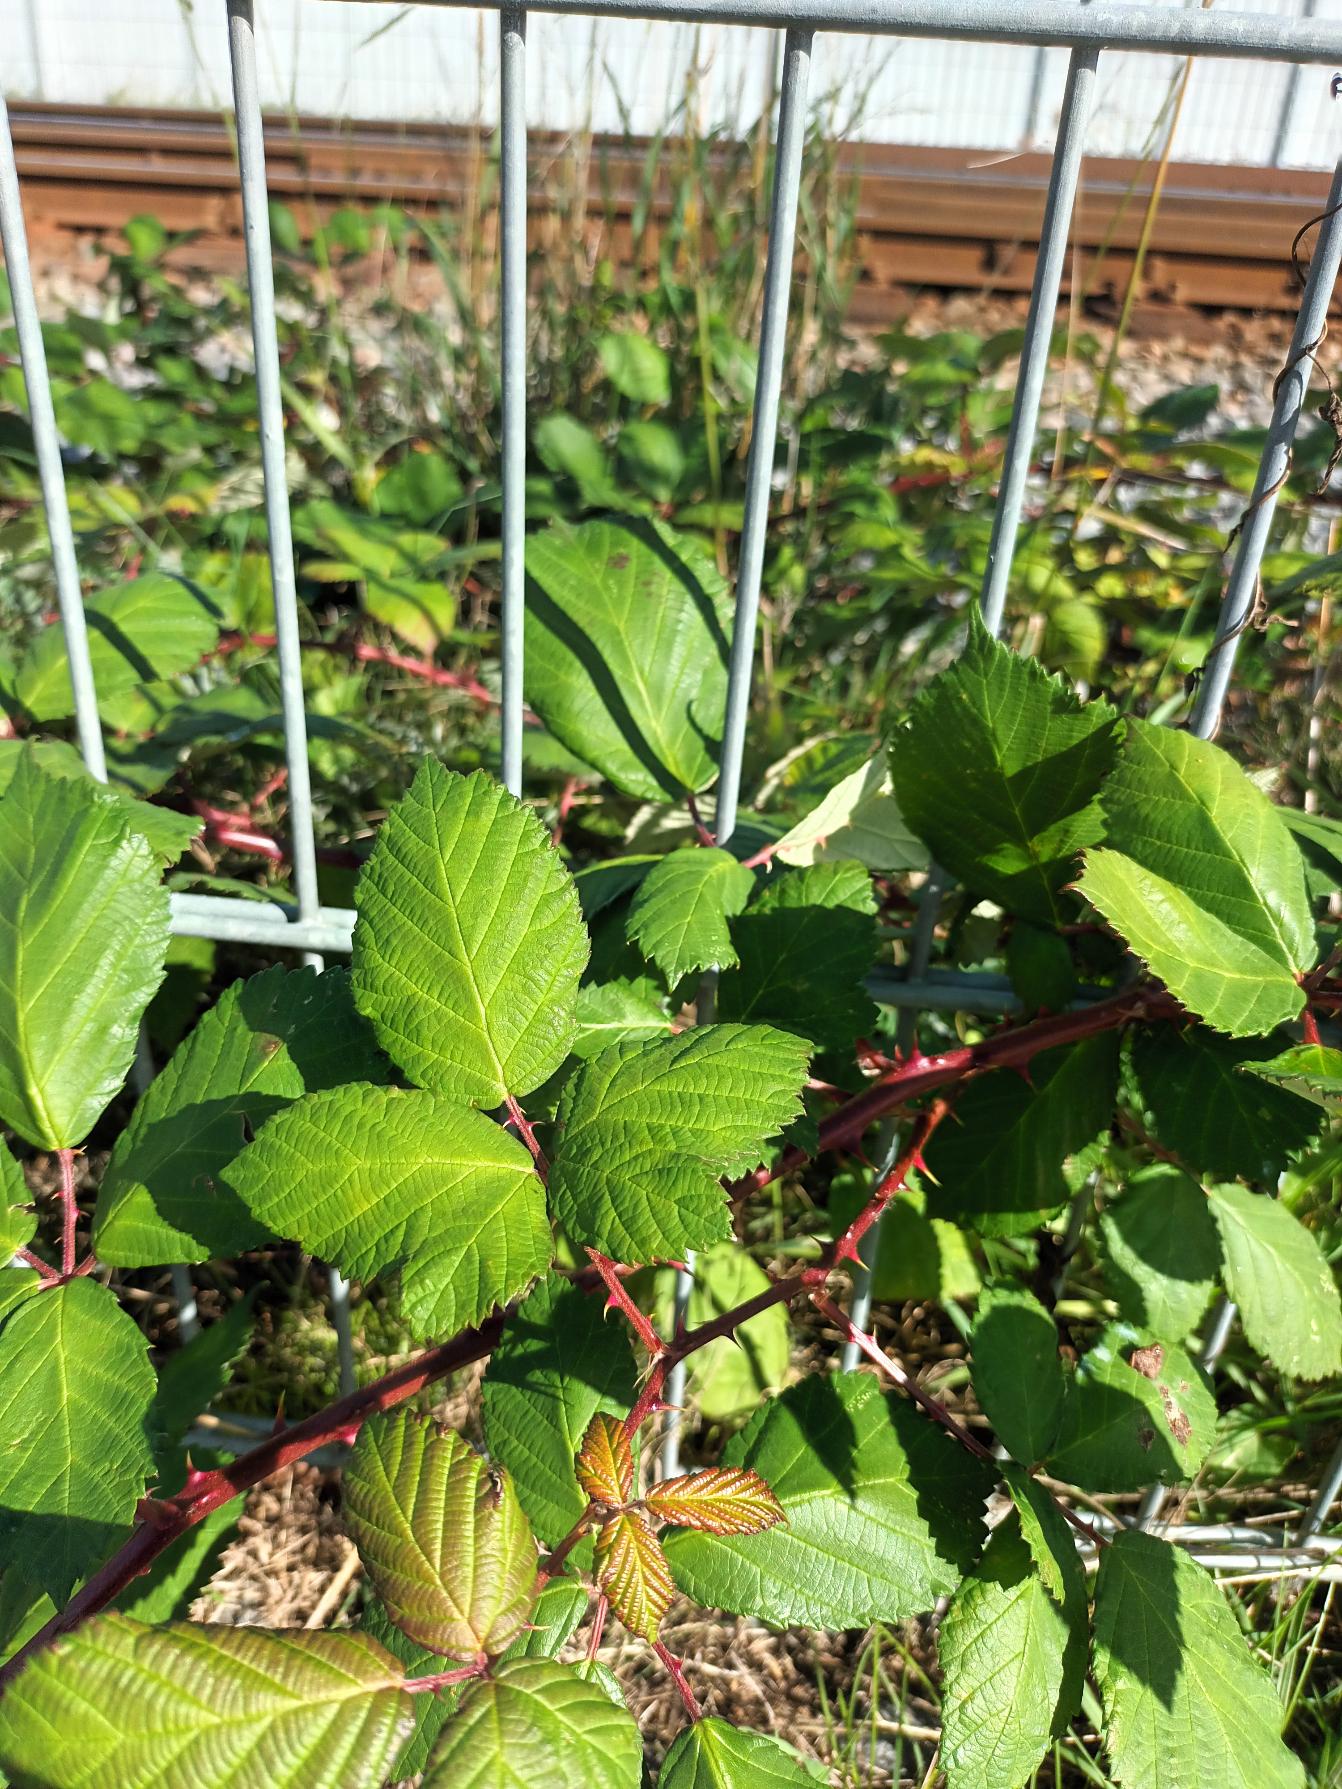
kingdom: Plantae
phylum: Tracheophyta
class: Magnoliopsida
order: Rosales
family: Rosaceae
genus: Rubus
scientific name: Rubus armeniacus
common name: Armensk brombær
